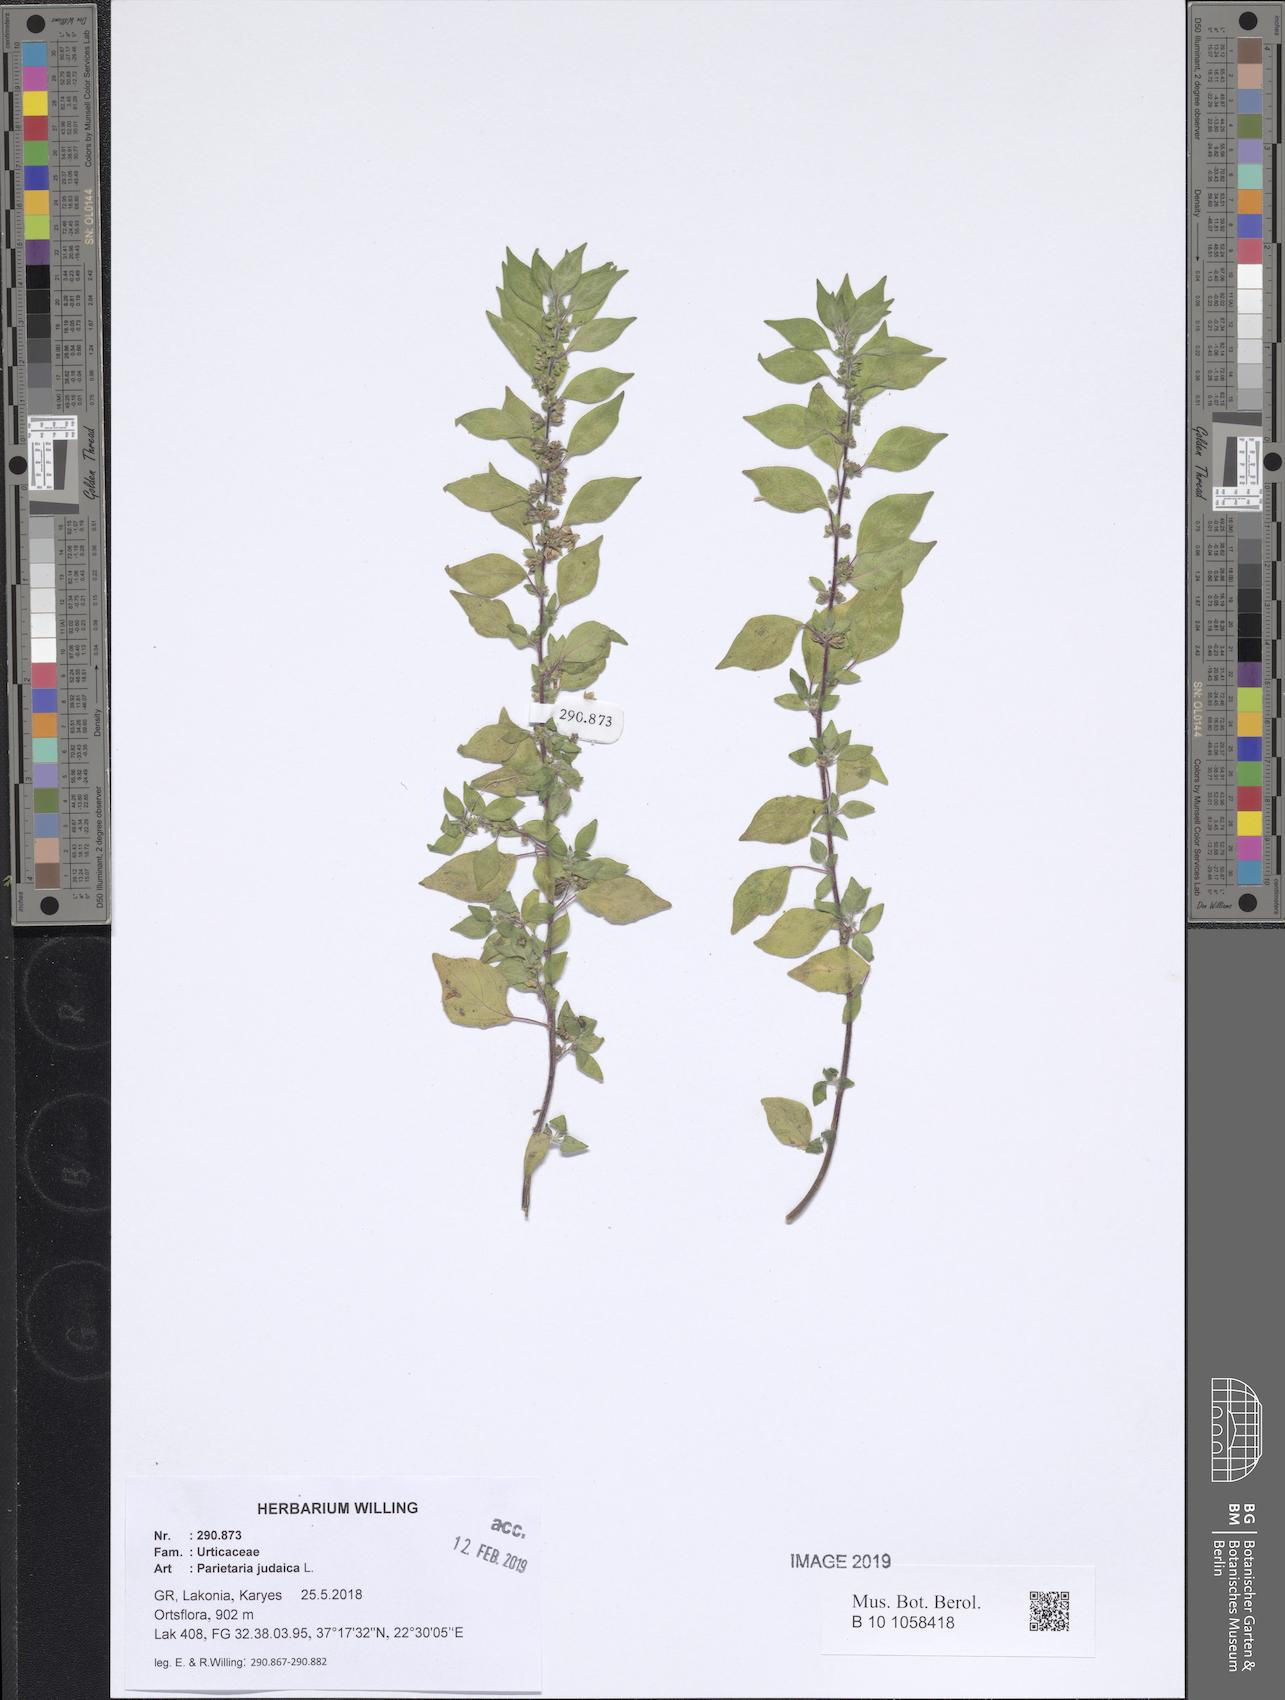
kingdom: Plantae
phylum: Tracheophyta
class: Magnoliopsida
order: Rosales
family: Urticaceae
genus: Parietaria
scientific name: Parietaria judaica
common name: Pellitory-of-the-wall
